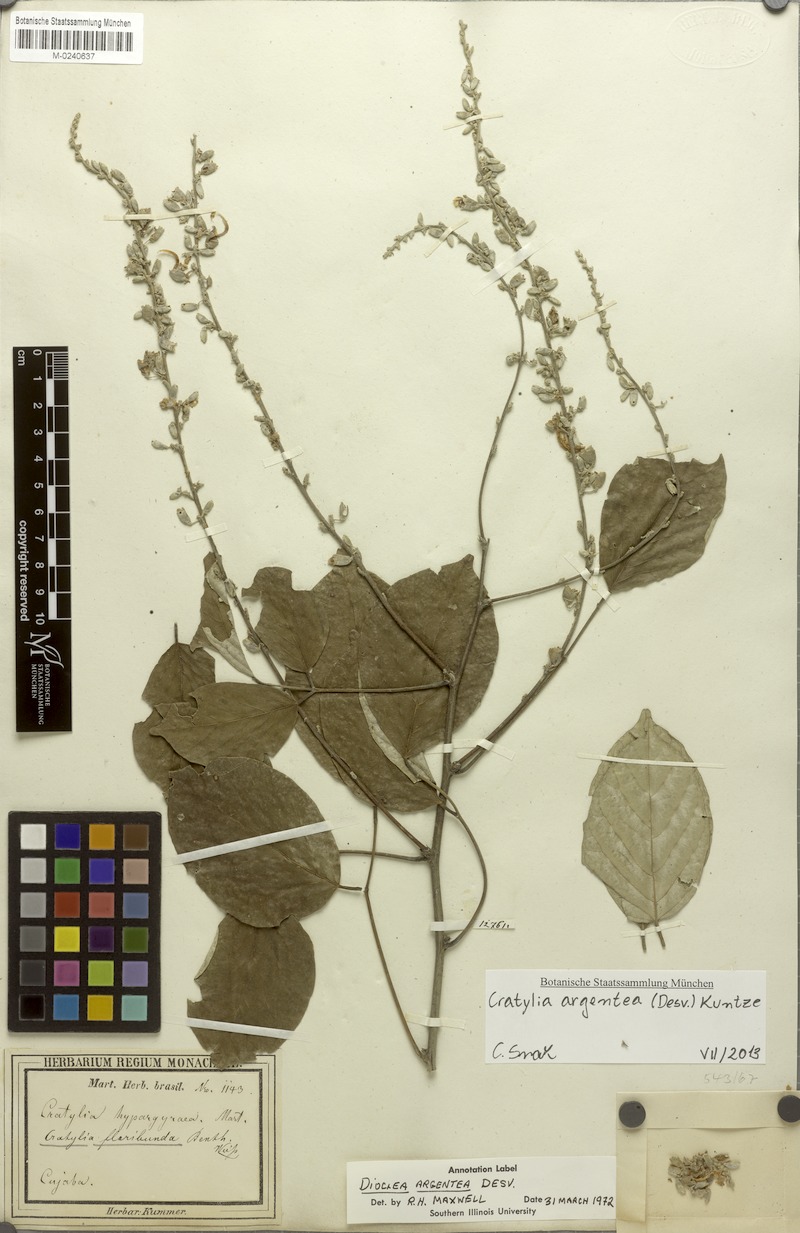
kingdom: Plantae
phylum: Tracheophyta
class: Magnoliopsida
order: Fabales
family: Fabaceae
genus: Cratylia
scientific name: Cratylia argentea
